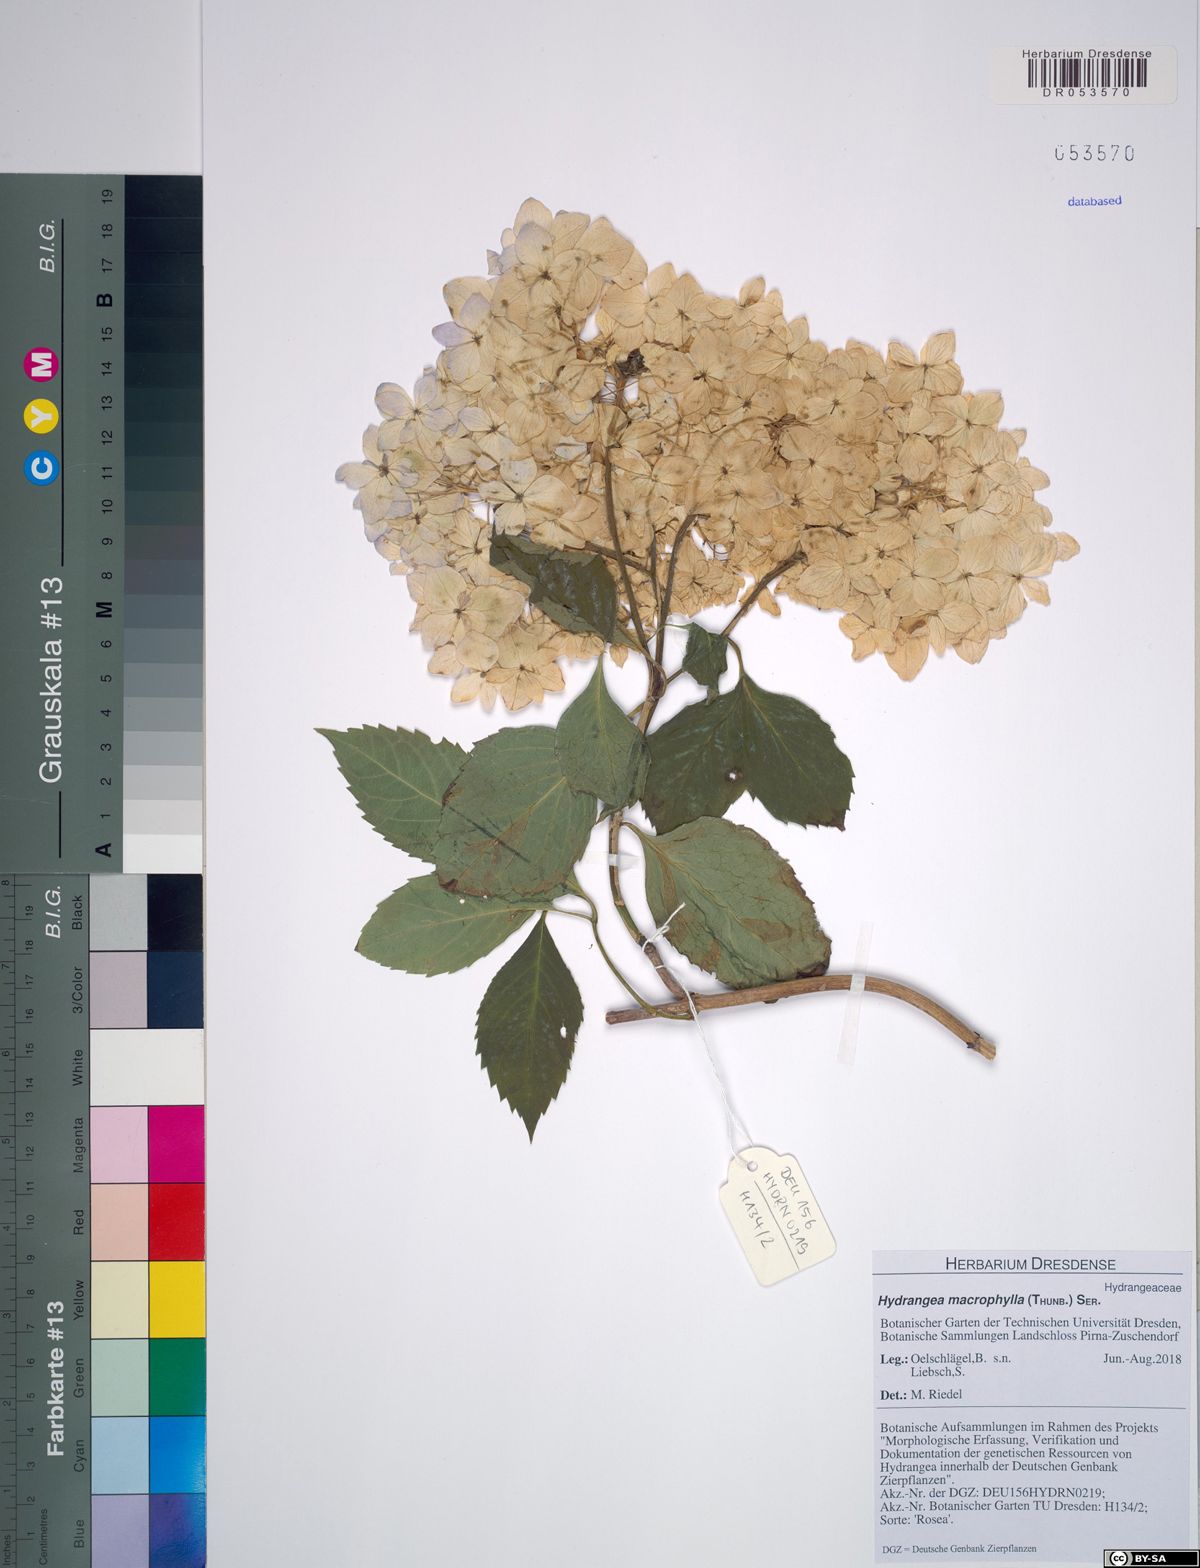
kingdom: Plantae
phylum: Tracheophyta
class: Magnoliopsida
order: Cornales
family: Hydrangeaceae
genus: Hydrangea
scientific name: Hydrangea macrophylla
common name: Hydrangea
